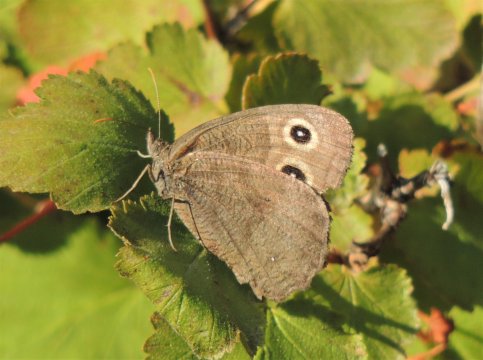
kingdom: Animalia
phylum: Arthropoda
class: Insecta
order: Lepidoptera
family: Nymphalidae
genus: Cercyonis
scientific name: Cercyonis pegala
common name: Common Wood-Nymph
